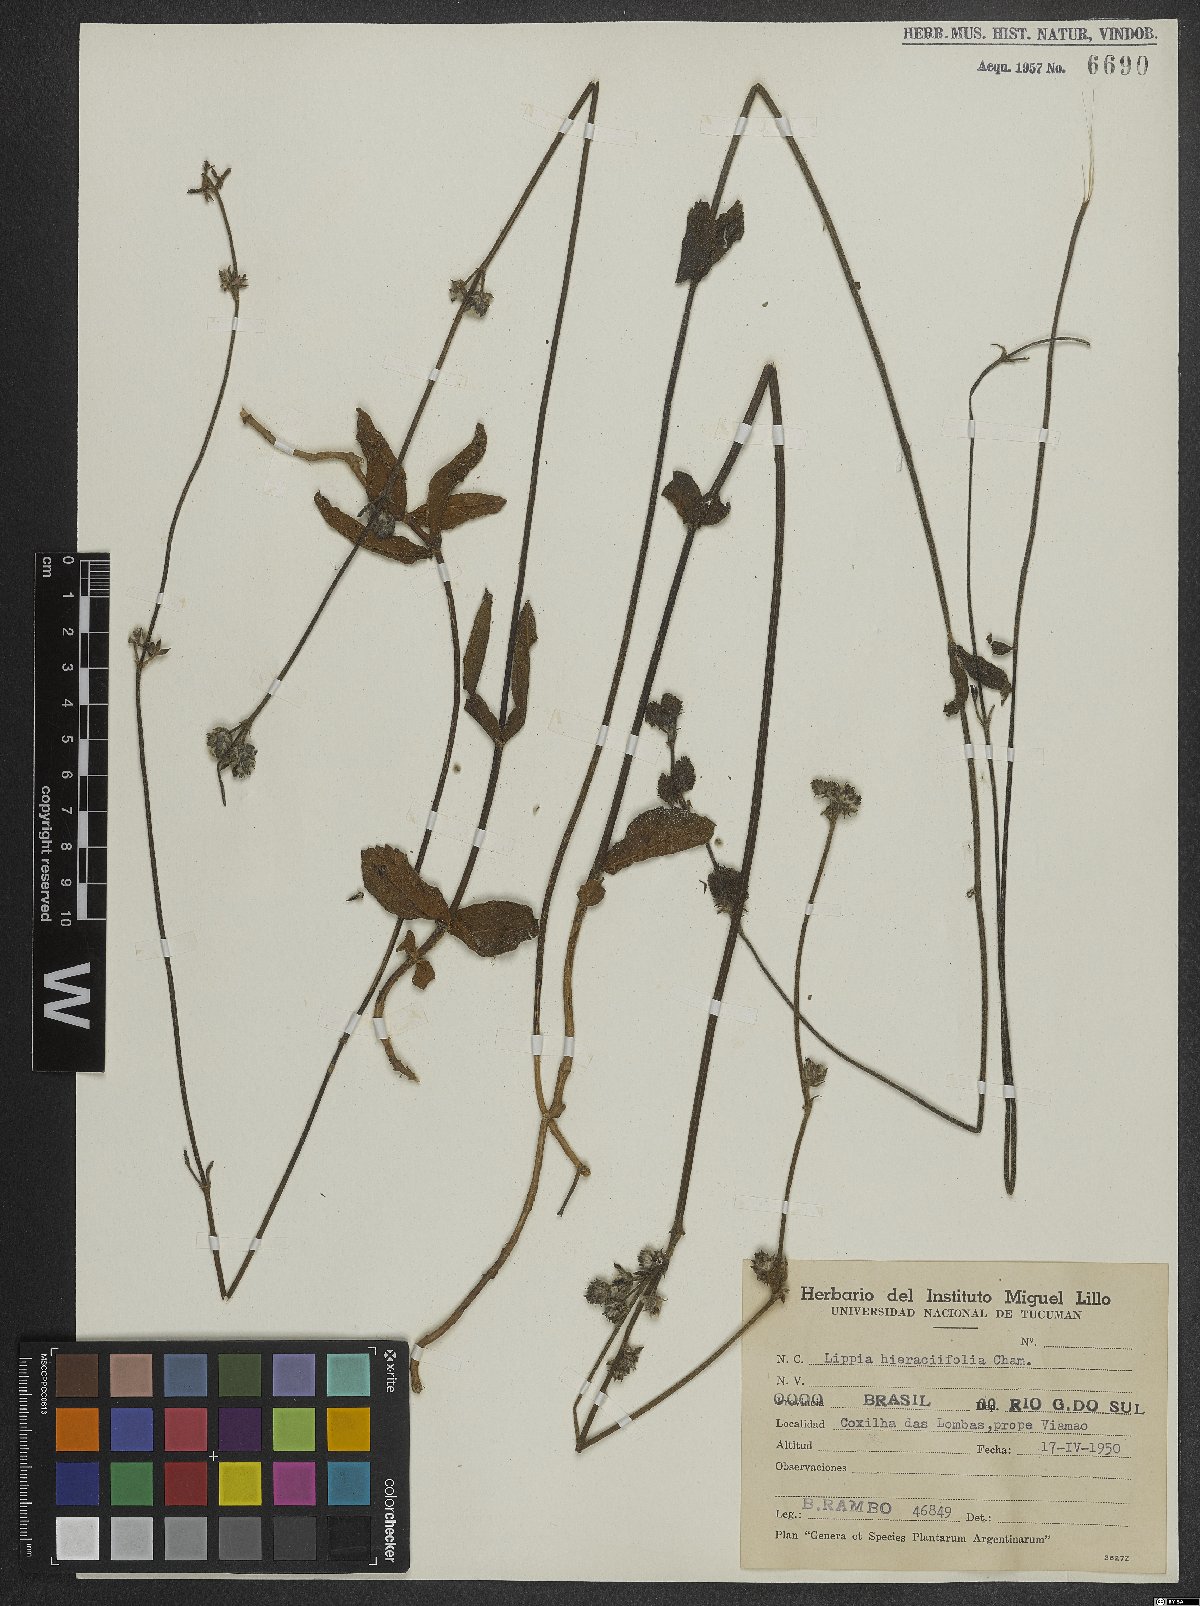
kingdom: Plantae
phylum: Tracheophyta
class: Magnoliopsida
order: Lamiales
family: Verbenaceae
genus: Lippia
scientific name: Lippia hieraciifolia
